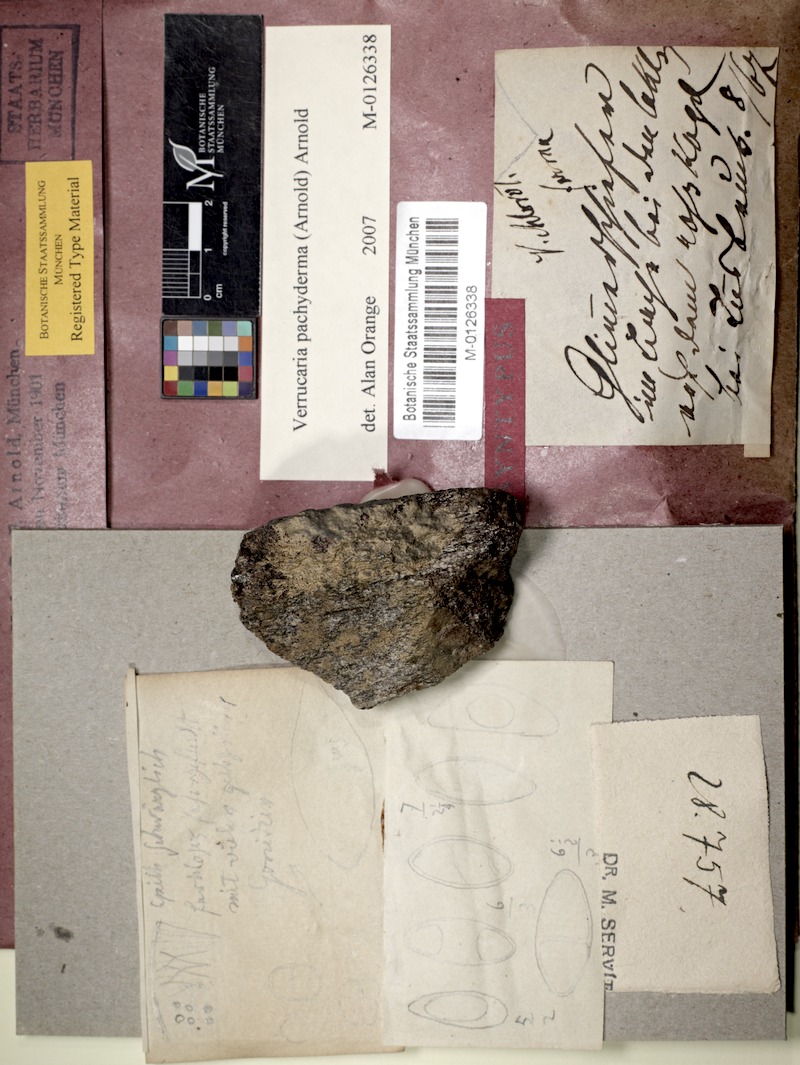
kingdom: Fungi
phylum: Ascomycota
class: Eurotiomycetes
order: Verrucariales
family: Verrucariaceae
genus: Verrucaria
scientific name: Verrucaria pachyderma
